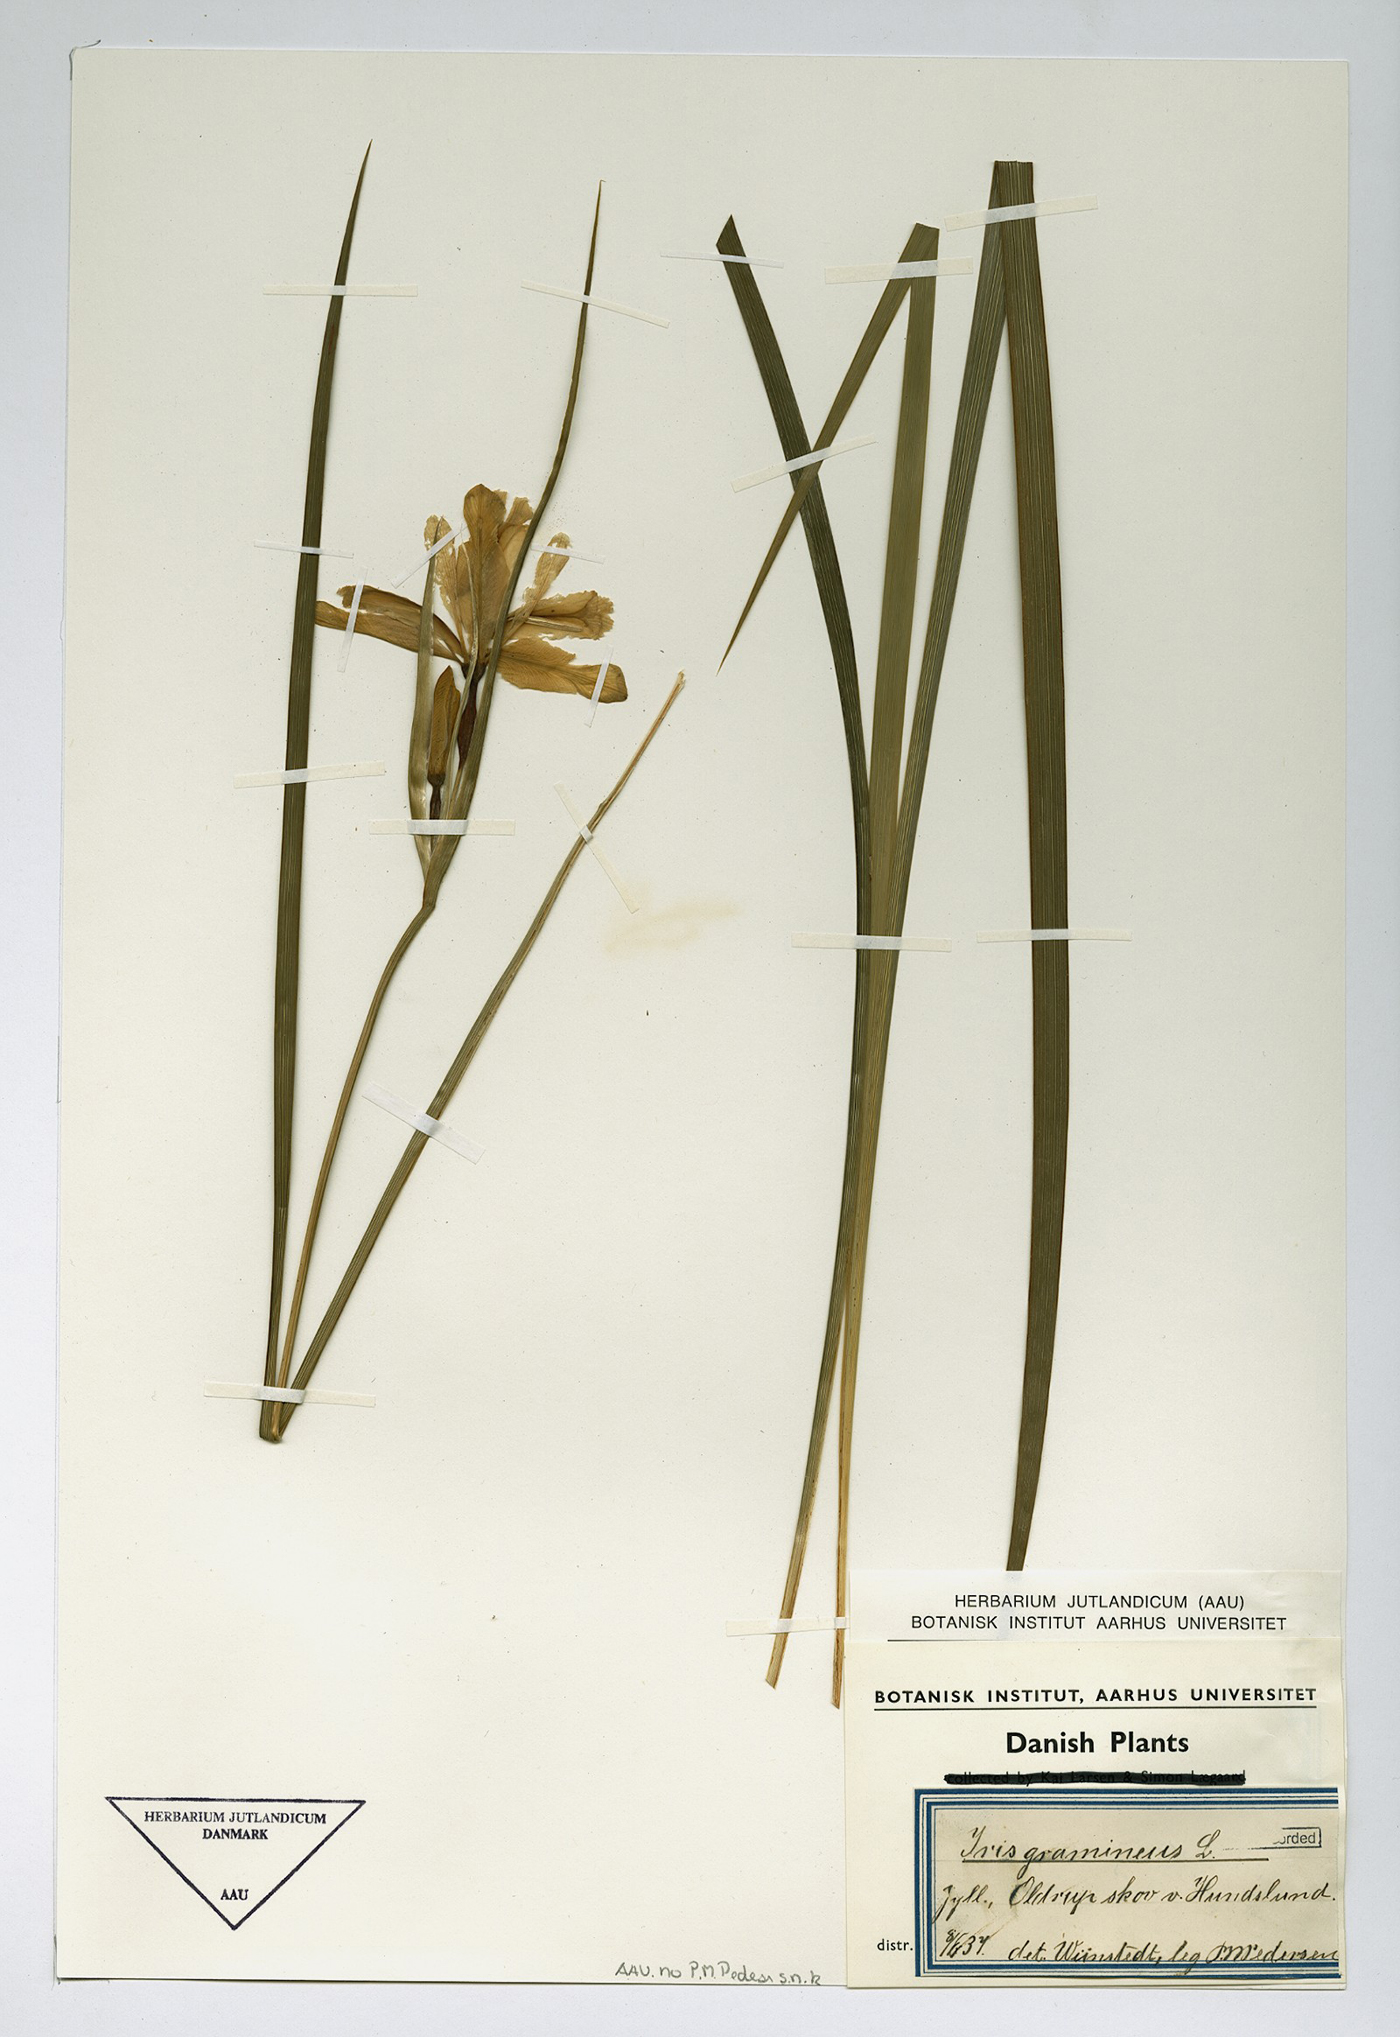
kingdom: Plantae
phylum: Tracheophyta
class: Liliopsida
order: Asparagales
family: Iridaceae
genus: Iris
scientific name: Iris graminea
